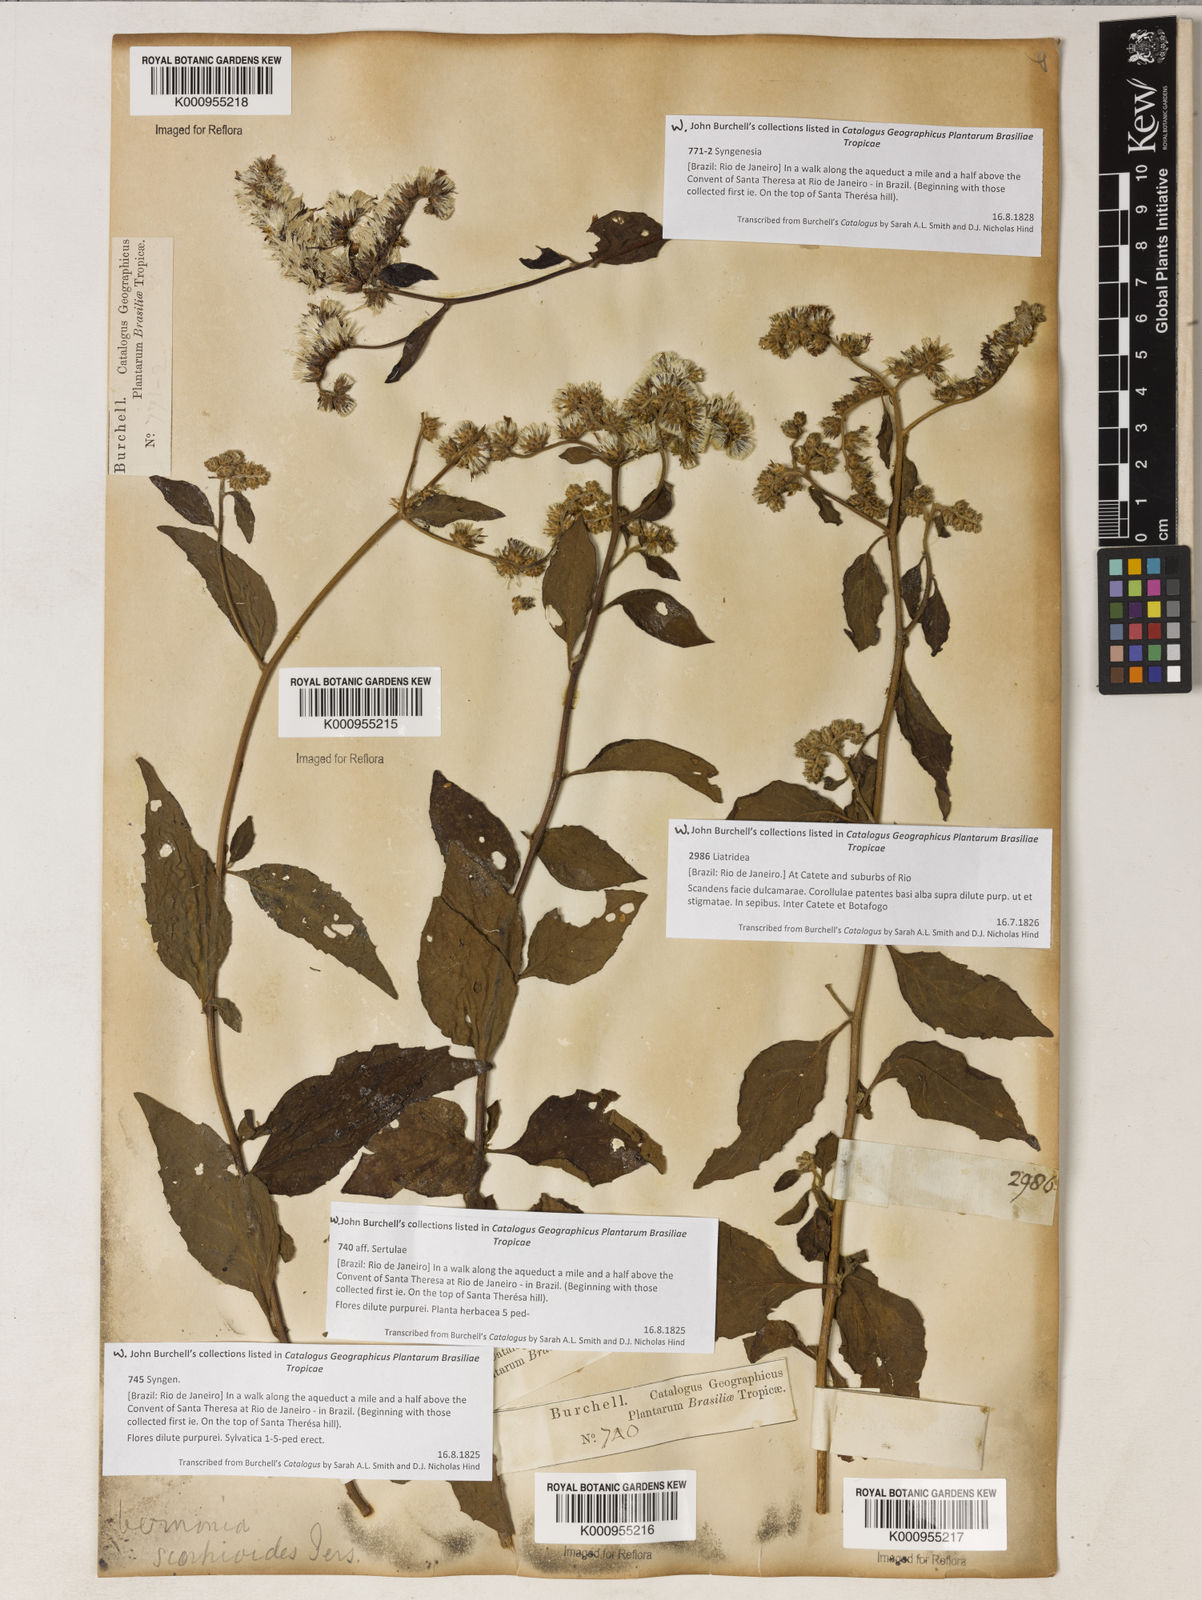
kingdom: Plantae
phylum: Tracheophyta
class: Magnoliopsida
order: Asterales
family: Asteraceae
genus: Cyrtocymura
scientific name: Cyrtocymura scorpioides
